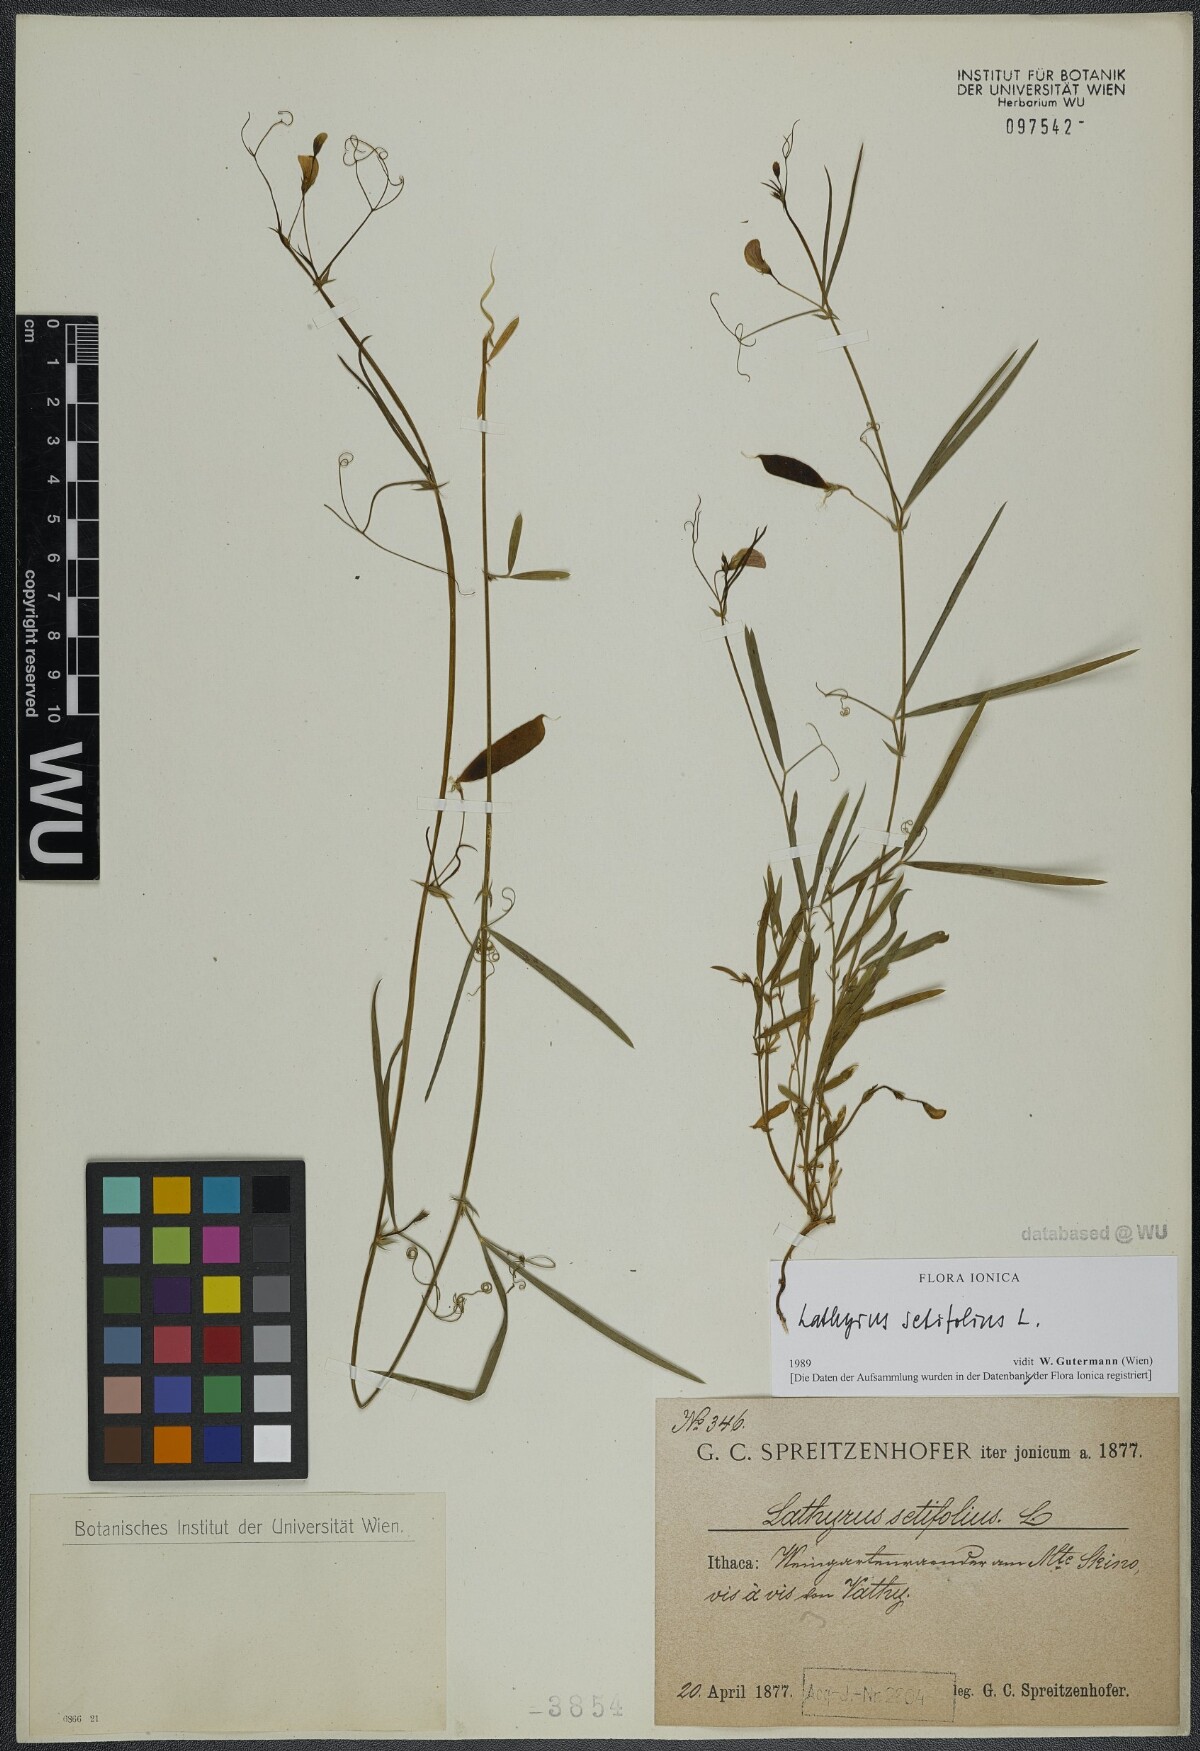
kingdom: Plantae
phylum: Tracheophyta
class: Magnoliopsida
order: Fabales
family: Fabaceae
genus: Lathyrus
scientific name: Lathyrus setifolius
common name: Brown vetchling
